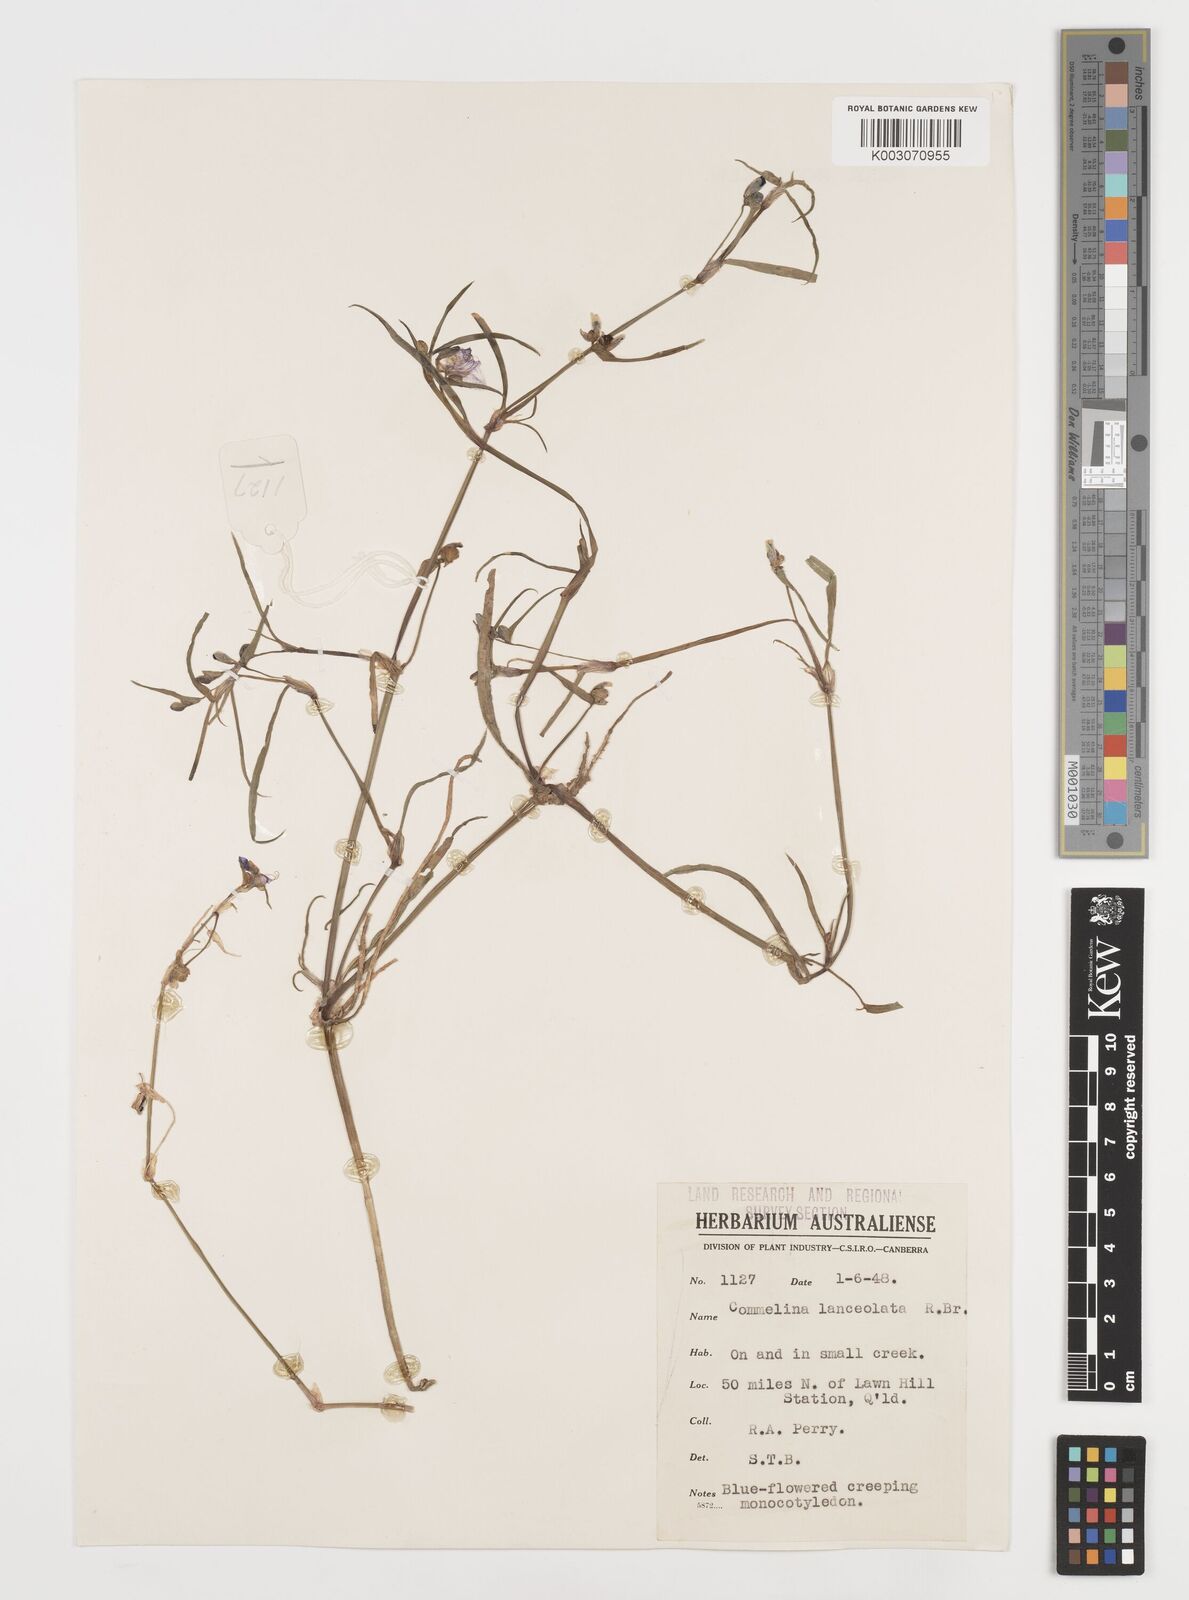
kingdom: Plantae
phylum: Tracheophyta
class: Liliopsida
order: Commelinales
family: Commelinaceae
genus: Commelina
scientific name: Commelina lanceolata
